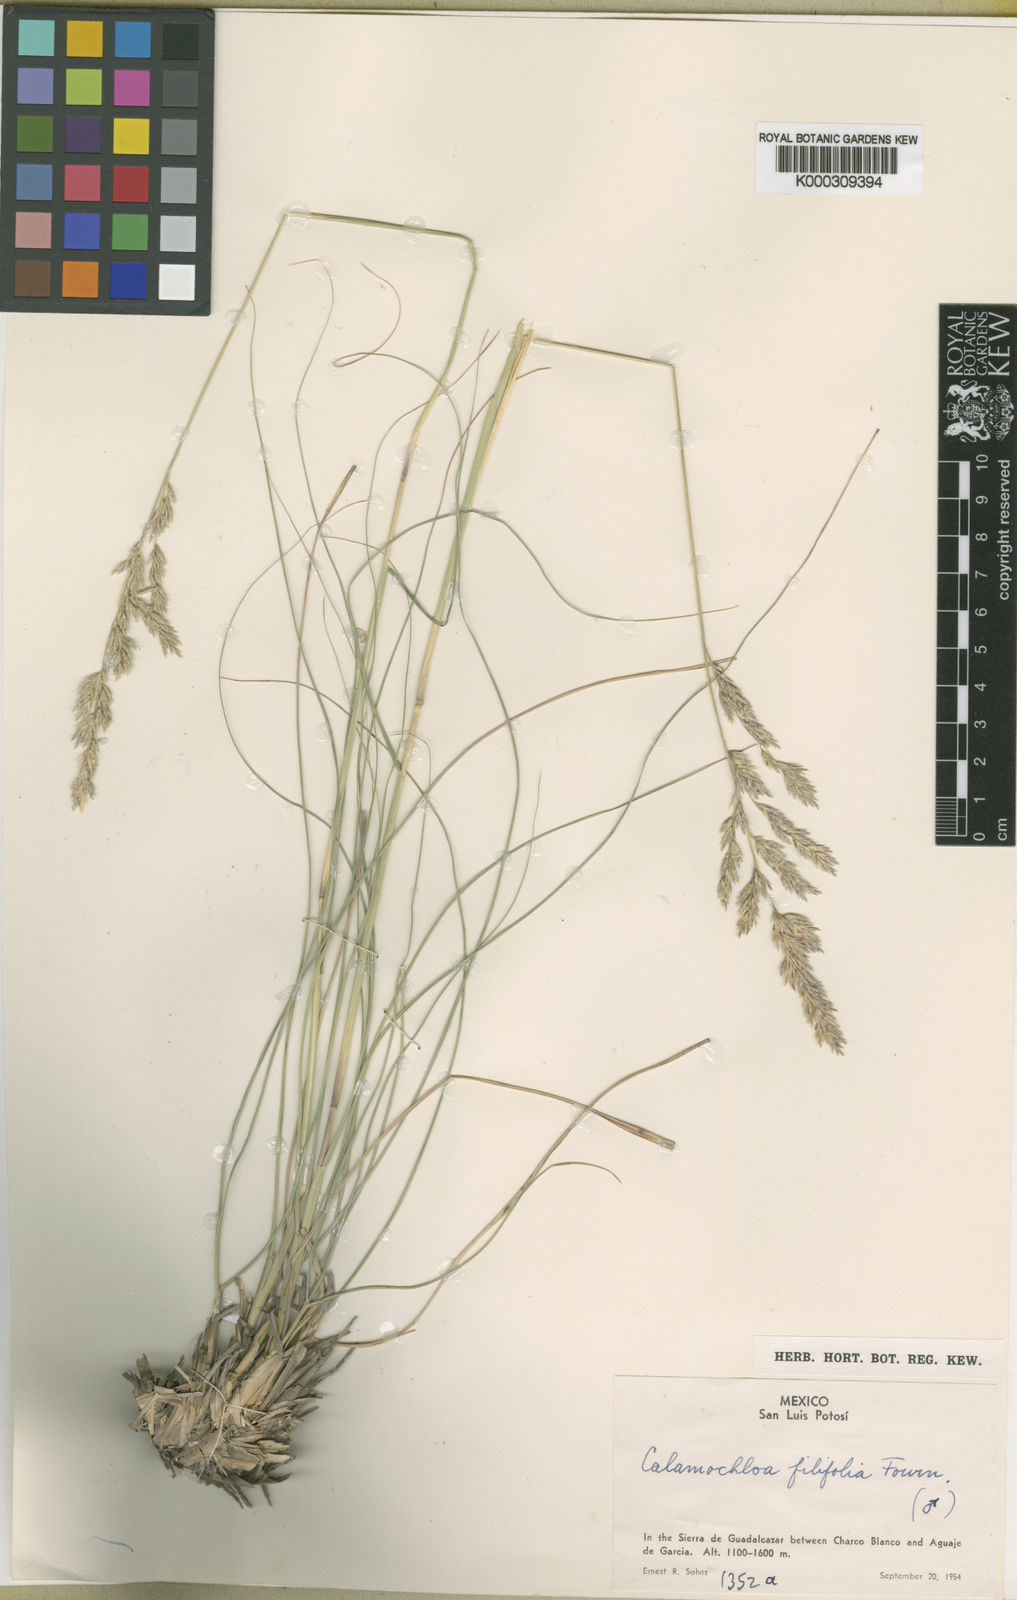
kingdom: Plantae
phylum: Tracheophyta
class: Liliopsida
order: Poales
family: Poaceae
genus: Sohnsia
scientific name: Sohnsia filifolia
